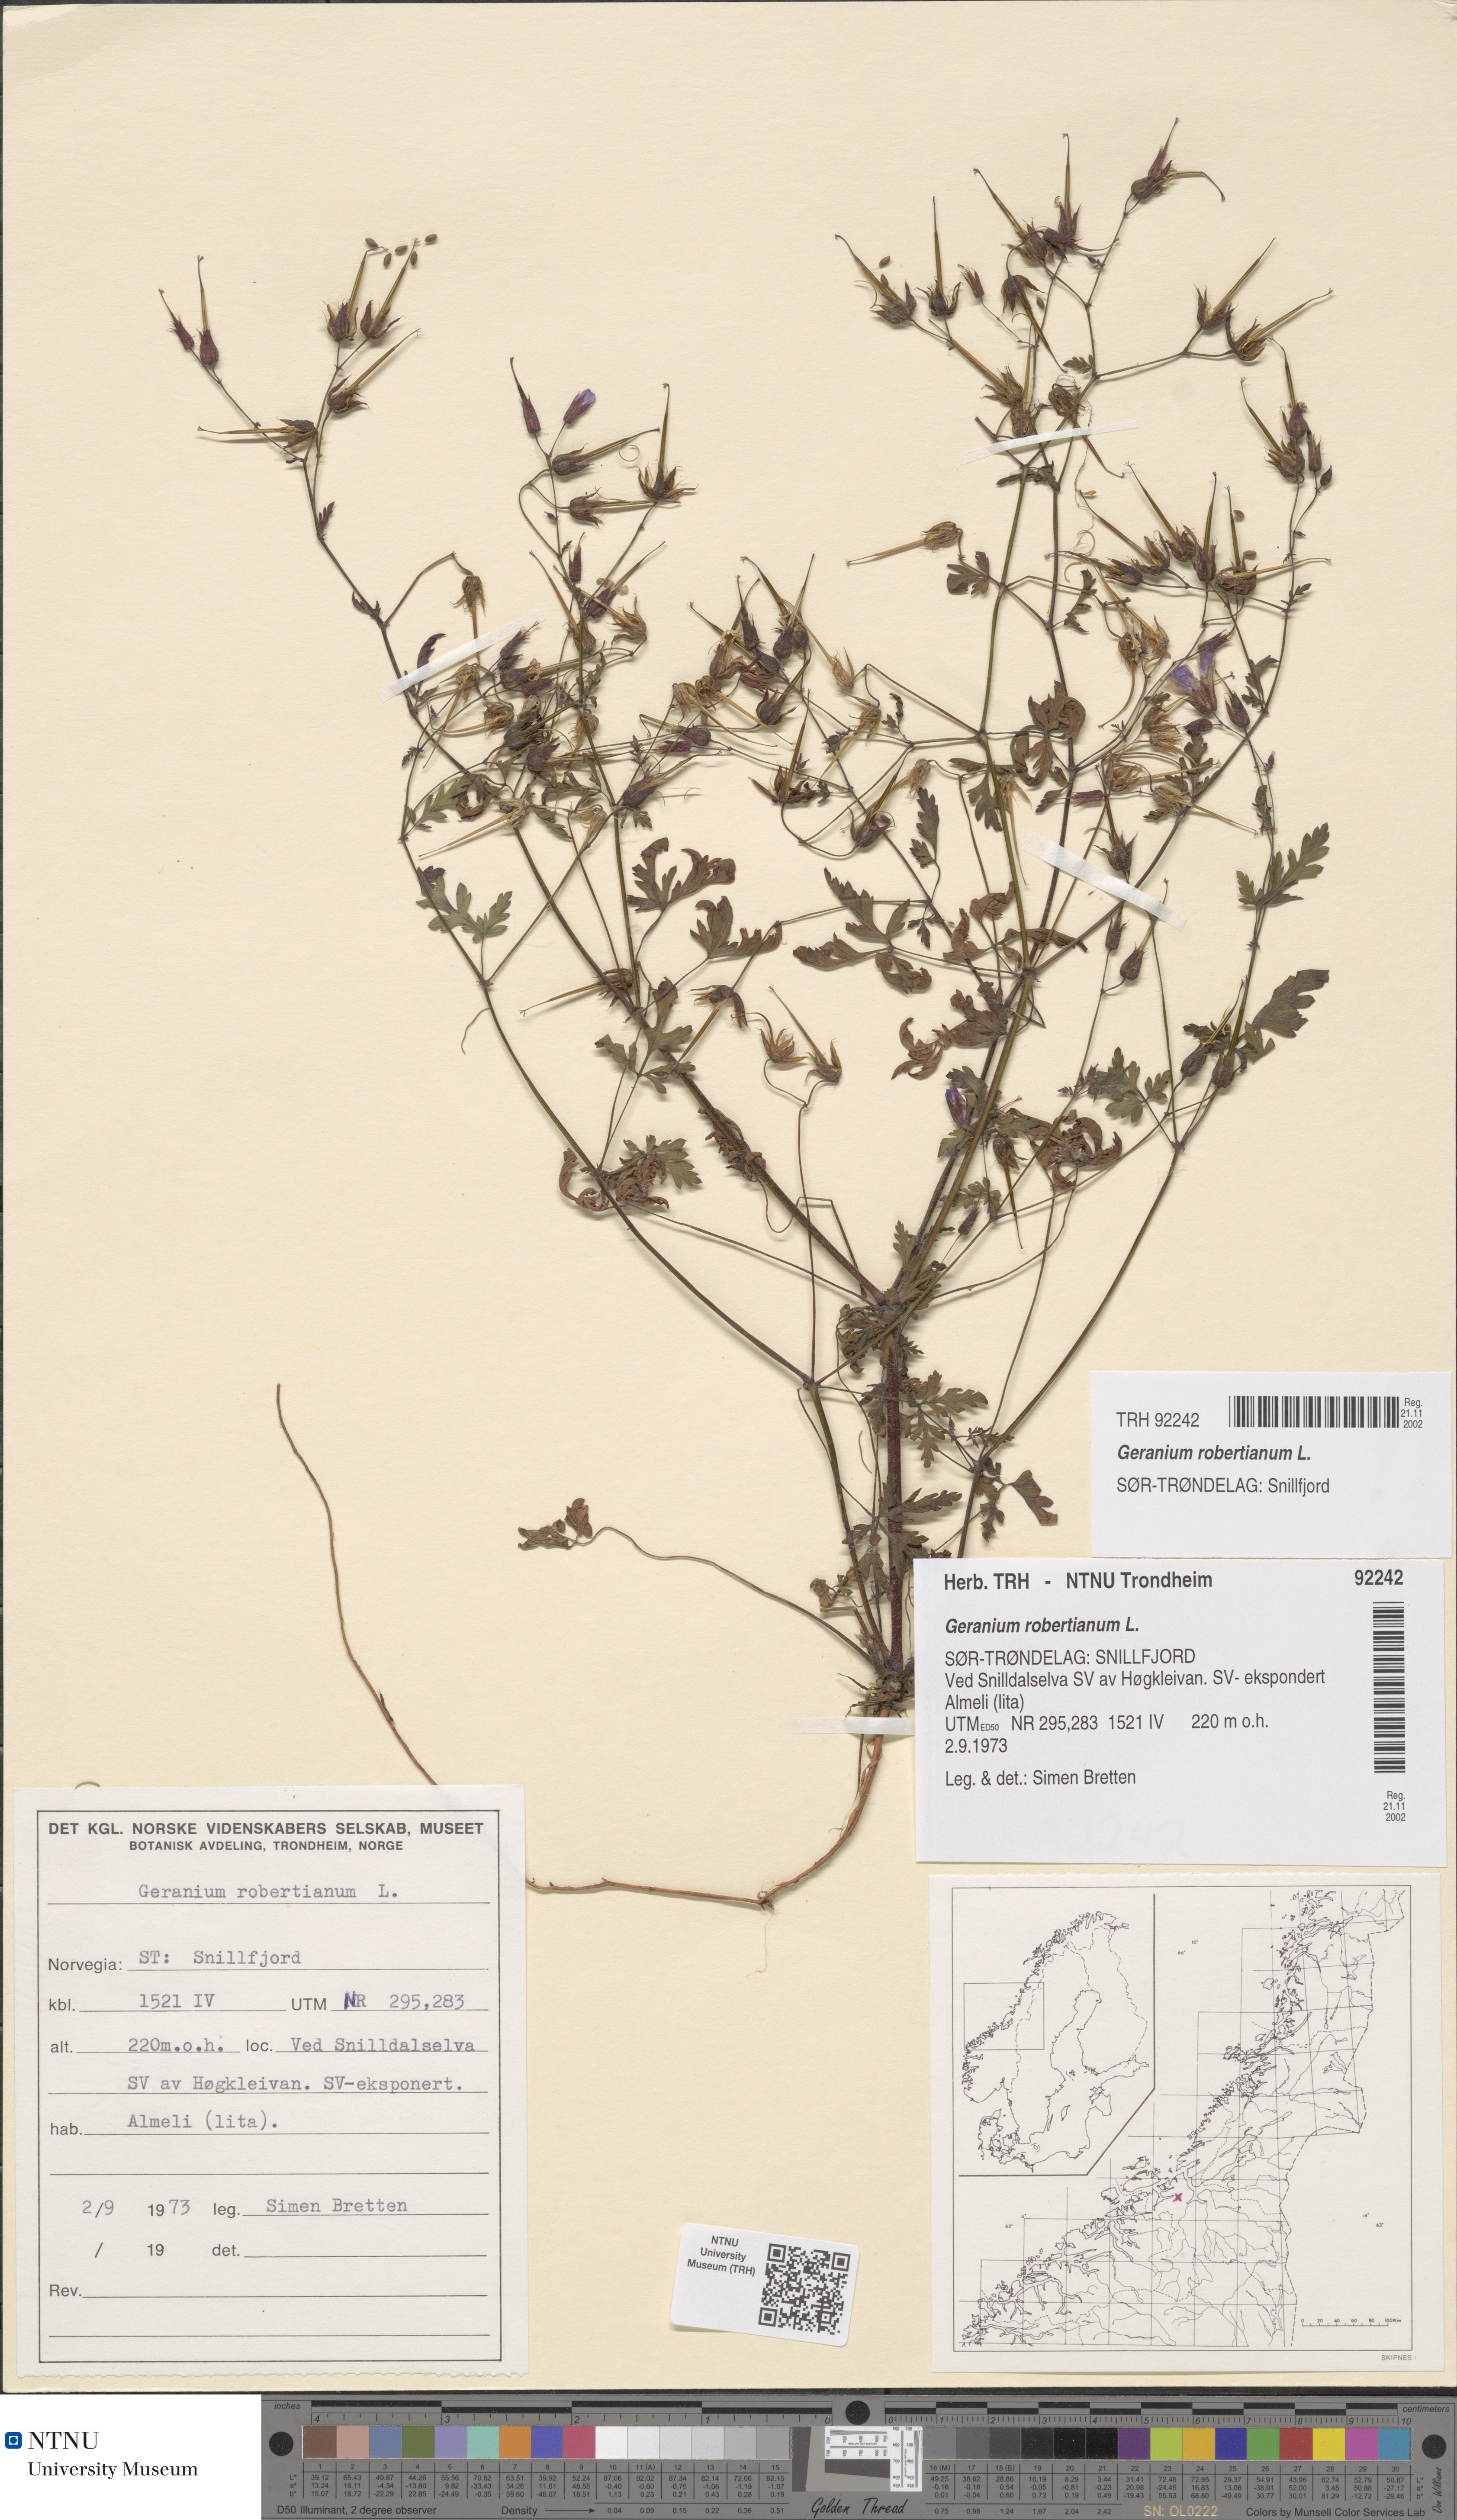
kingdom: Plantae
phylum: Tracheophyta
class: Magnoliopsida
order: Geraniales
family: Geraniaceae
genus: Geranium
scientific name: Geranium robertianum
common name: Herb-robert
